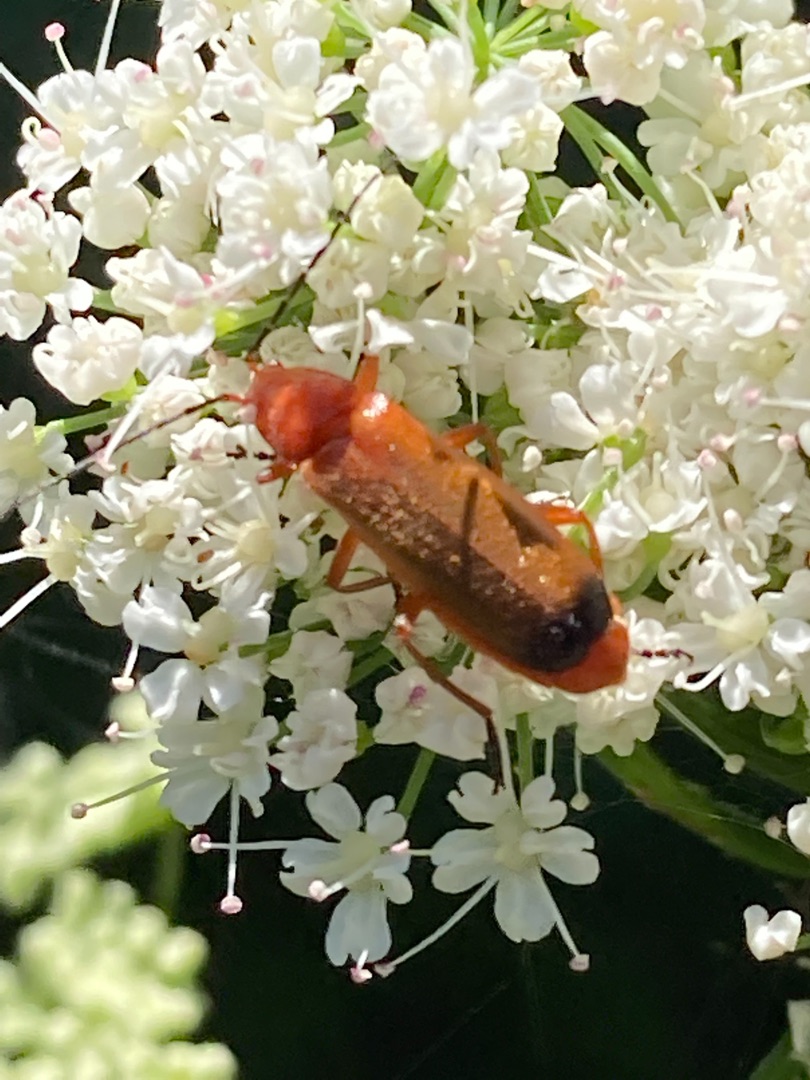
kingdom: Animalia
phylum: Arthropoda
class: Insecta
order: Coleoptera
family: Cantharidae
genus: Rhagonycha
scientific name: Rhagonycha fulva
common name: Præstebille
